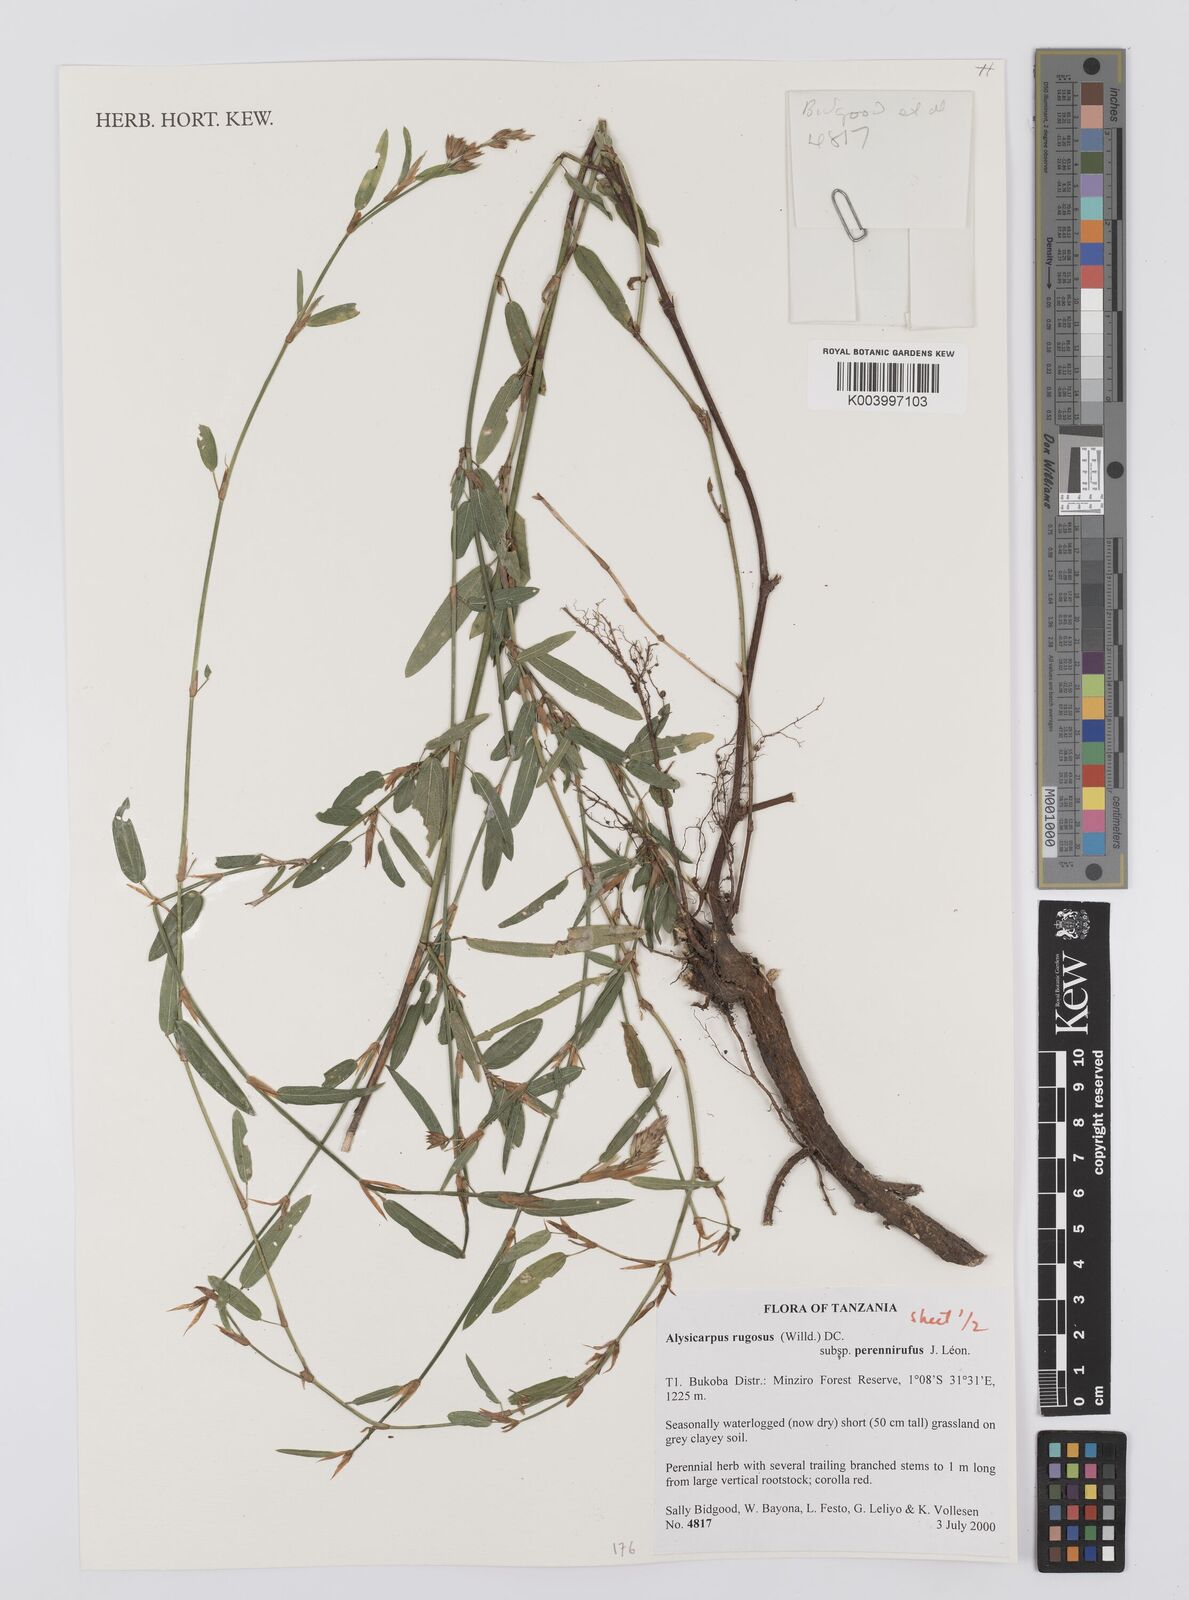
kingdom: Plantae
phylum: Tracheophyta
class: Magnoliopsida
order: Fabales
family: Fabaceae
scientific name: Fabaceae
